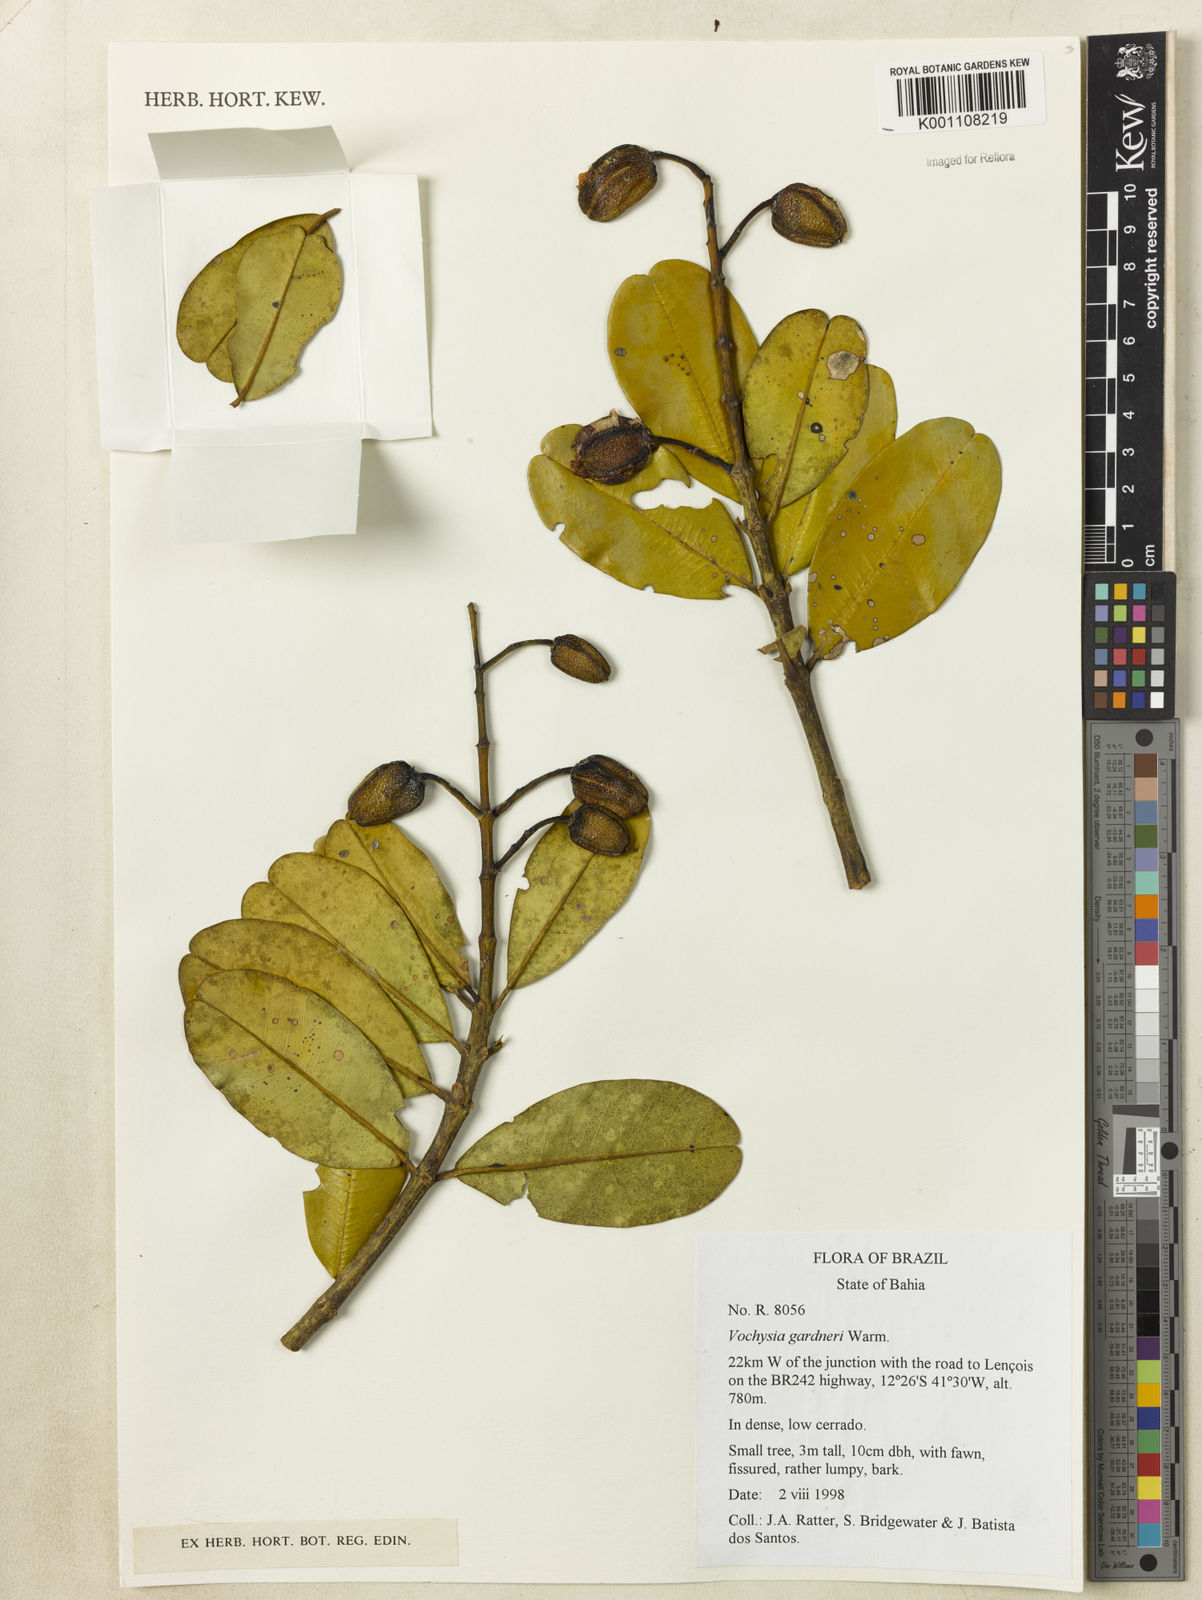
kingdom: Plantae
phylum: Tracheophyta
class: Magnoliopsida
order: Myrtales
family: Vochysiaceae
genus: Vochysia
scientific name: Vochysia gardneri
